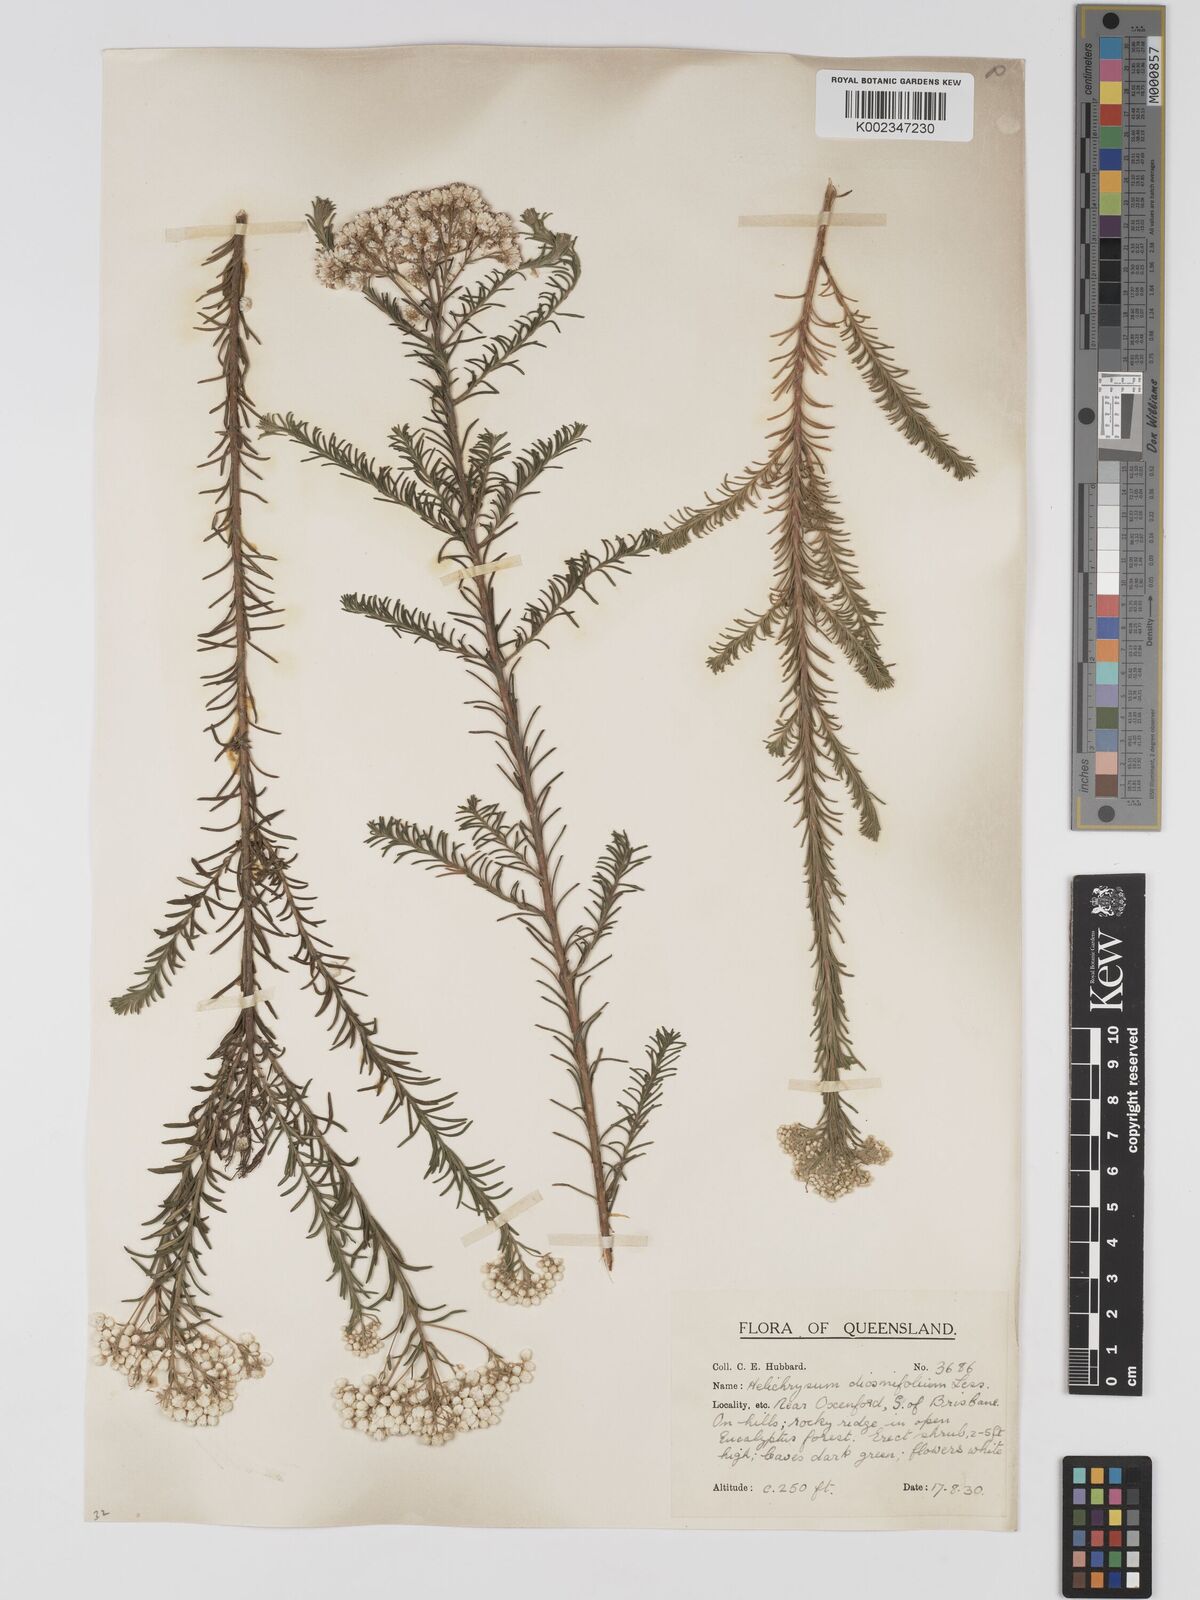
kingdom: Plantae
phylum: Tracheophyta
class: Magnoliopsida
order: Asterales
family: Asteraceae
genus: Ozothamnus
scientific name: Ozothamnus diosmifolius
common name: White-dogwood
